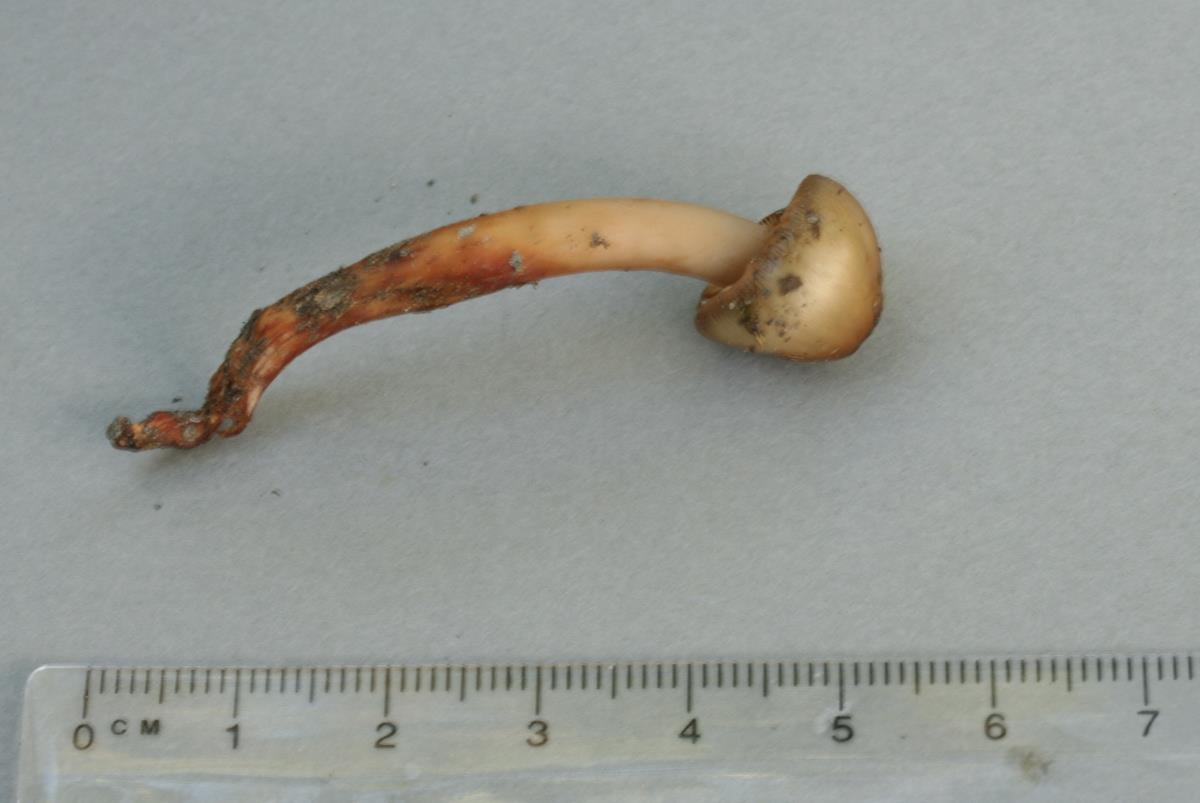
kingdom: Fungi
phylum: Basidiomycota
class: Agaricomycetes
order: Agaricales
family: Hymenogastraceae
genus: Phaeocollybia
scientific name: Phaeocollybia minuta
